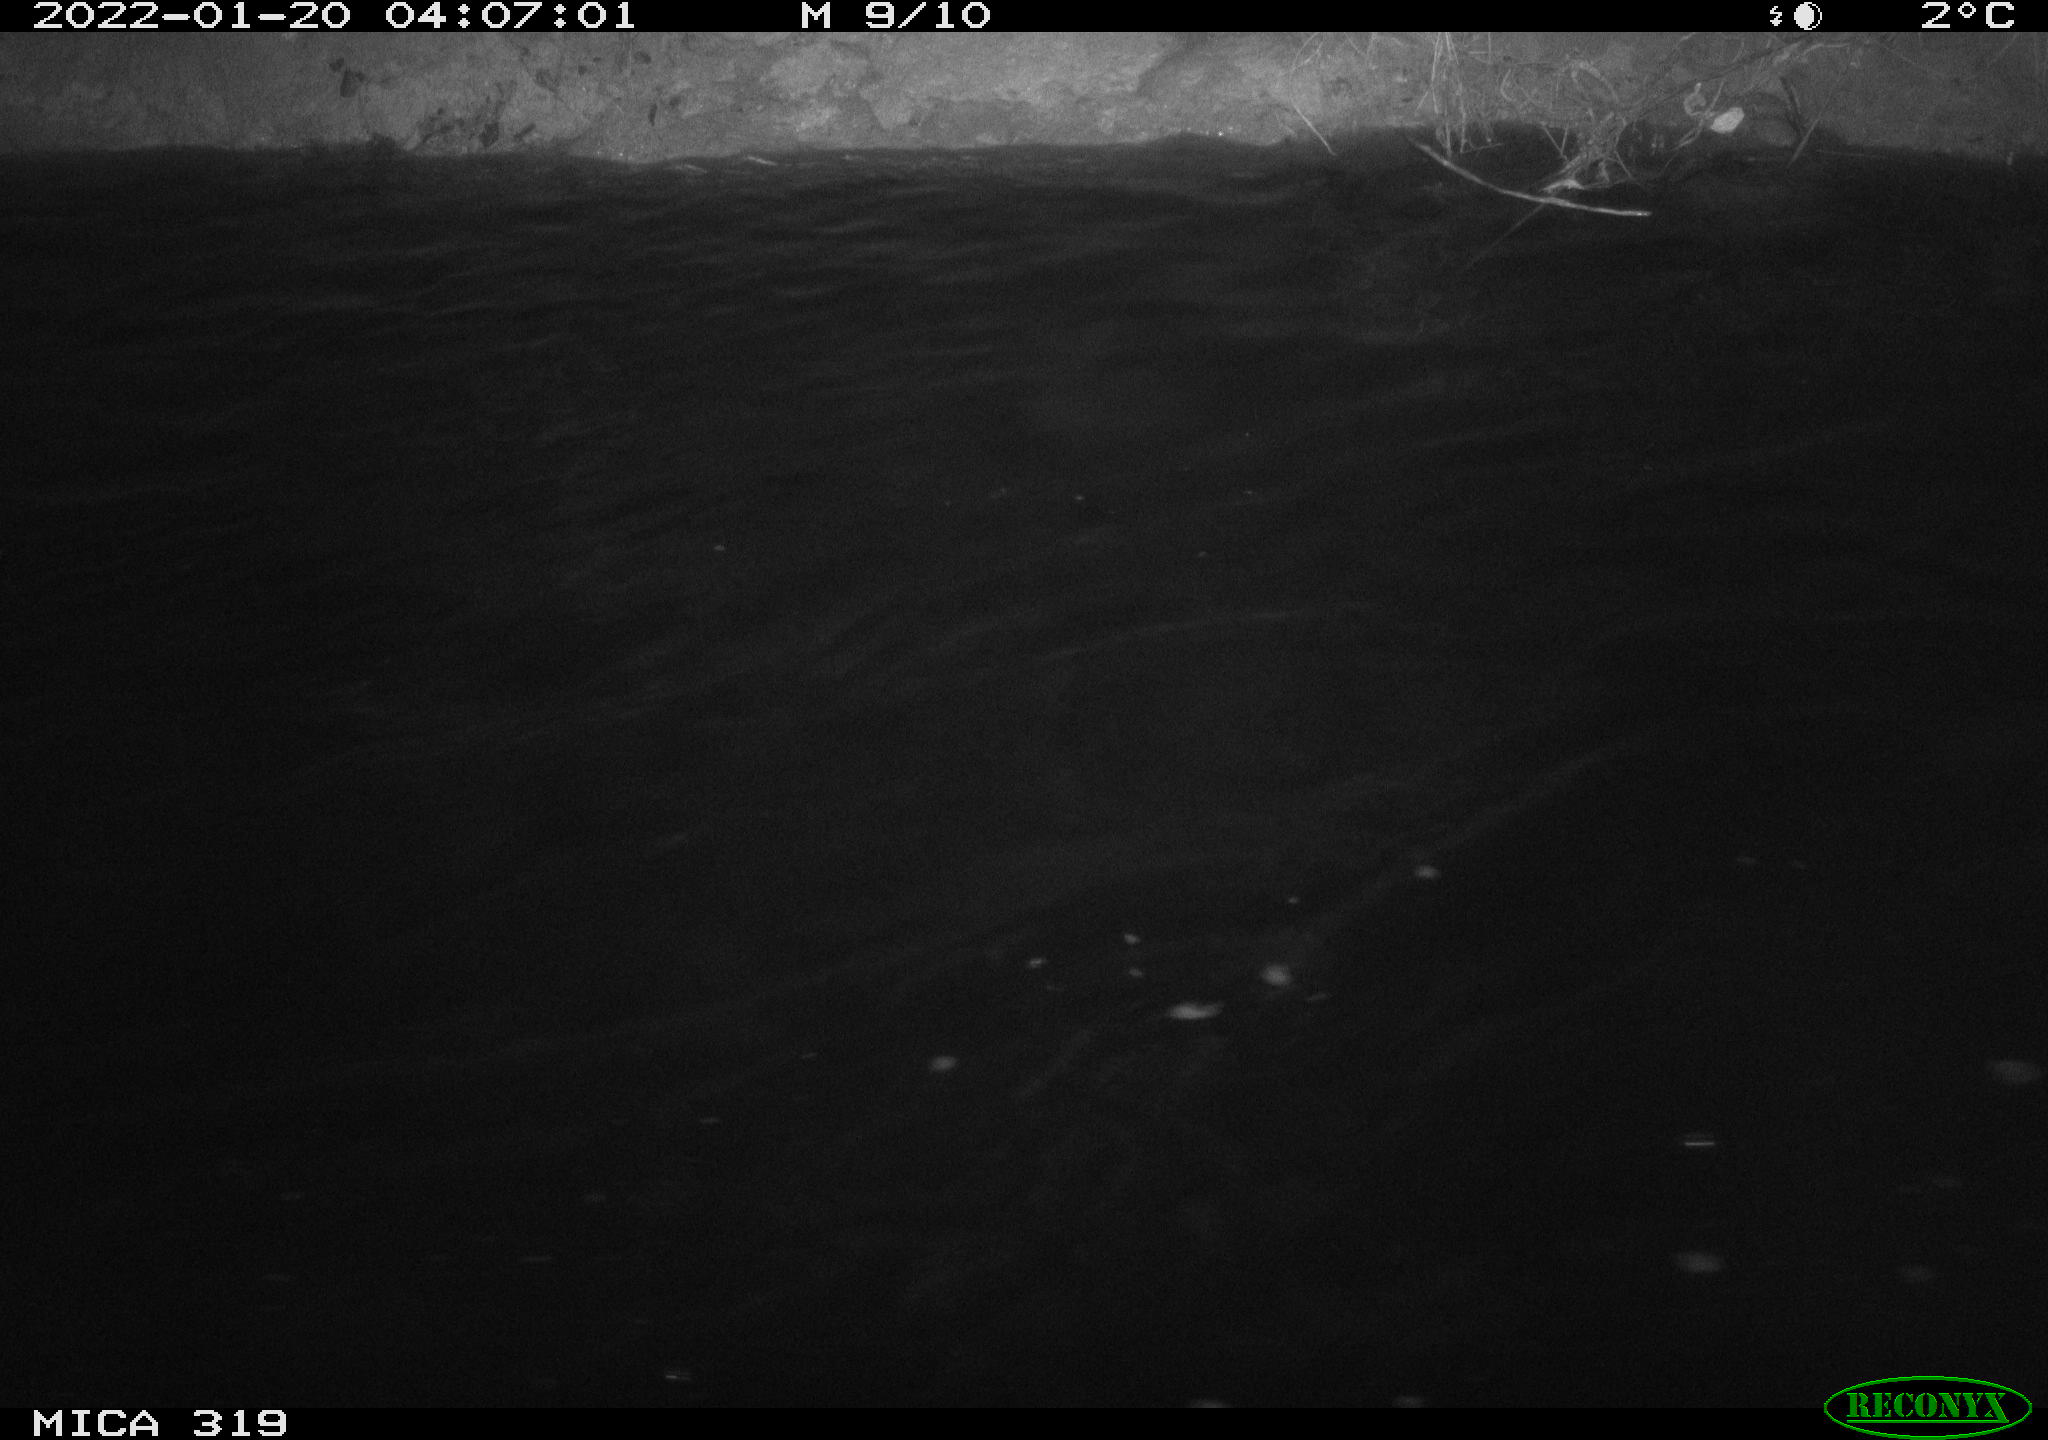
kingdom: Animalia
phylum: Chordata
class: Aves
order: Anseriformes
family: Anatidae
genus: Anas
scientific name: Anas platyrhynchos
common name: Mallard
